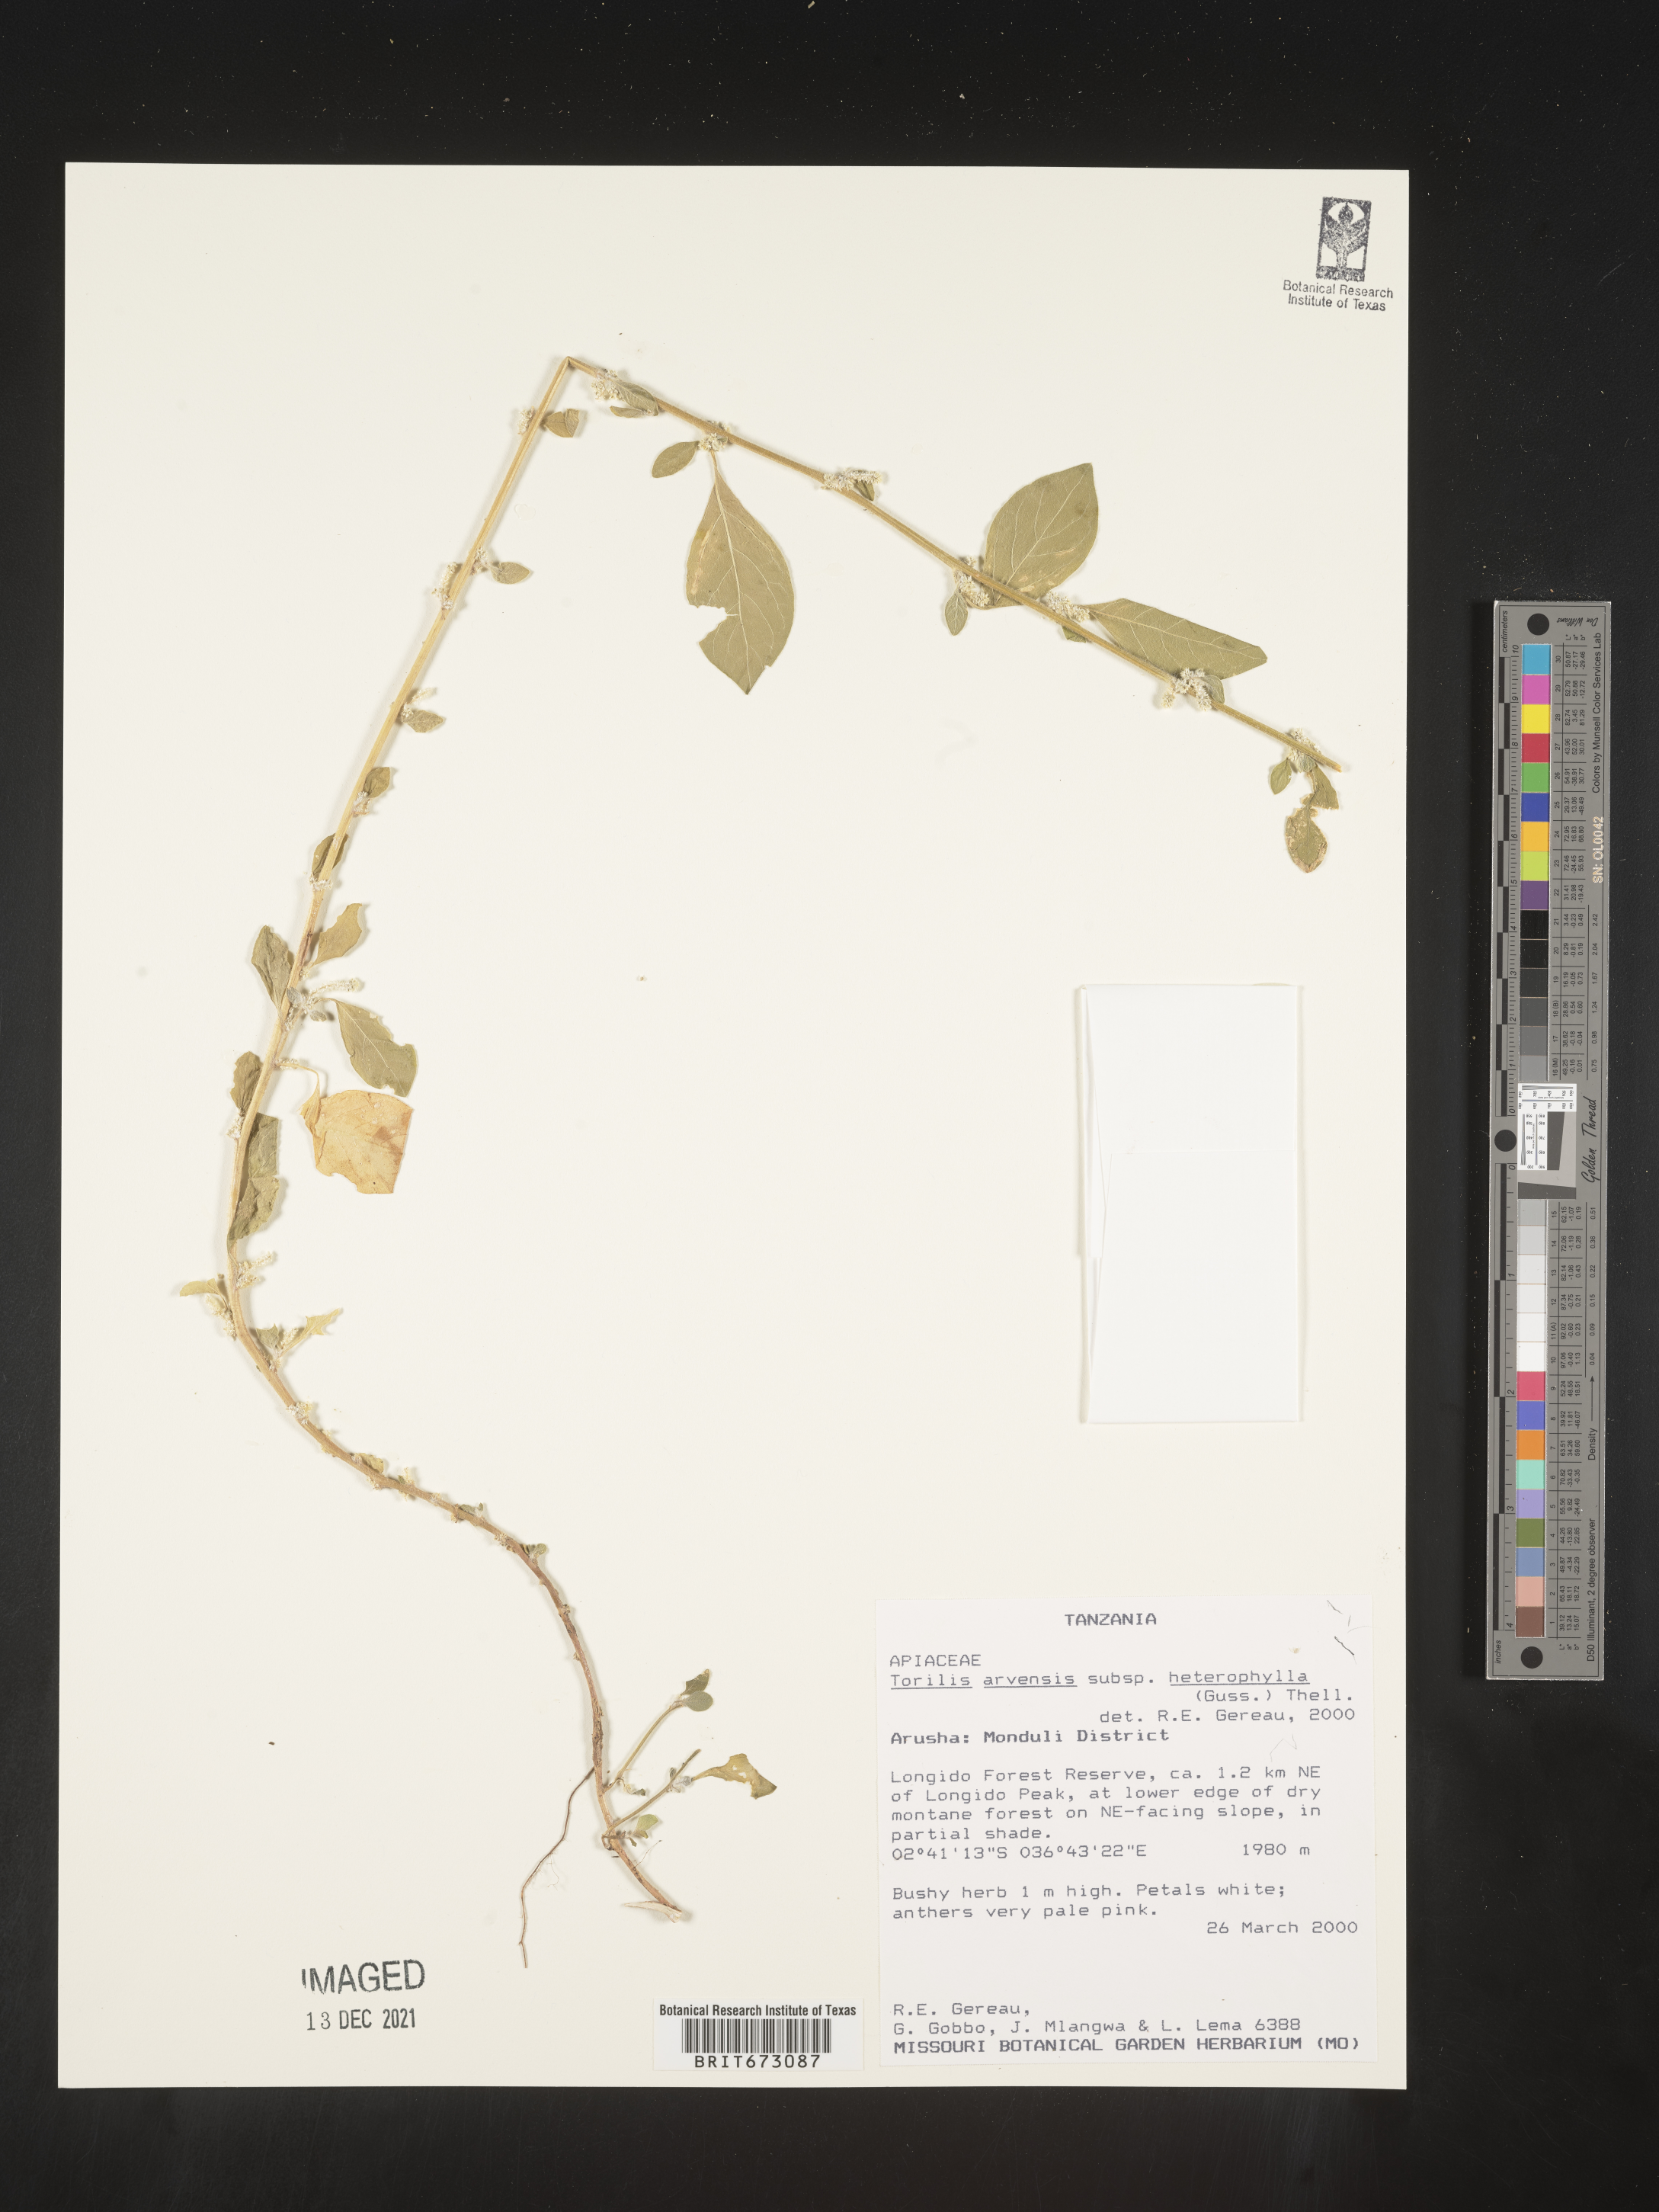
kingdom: Plantae
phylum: Tracheophyta
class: Magnoliopsida
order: Apiales
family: Apiaceae
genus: Torilis
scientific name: Torilis
